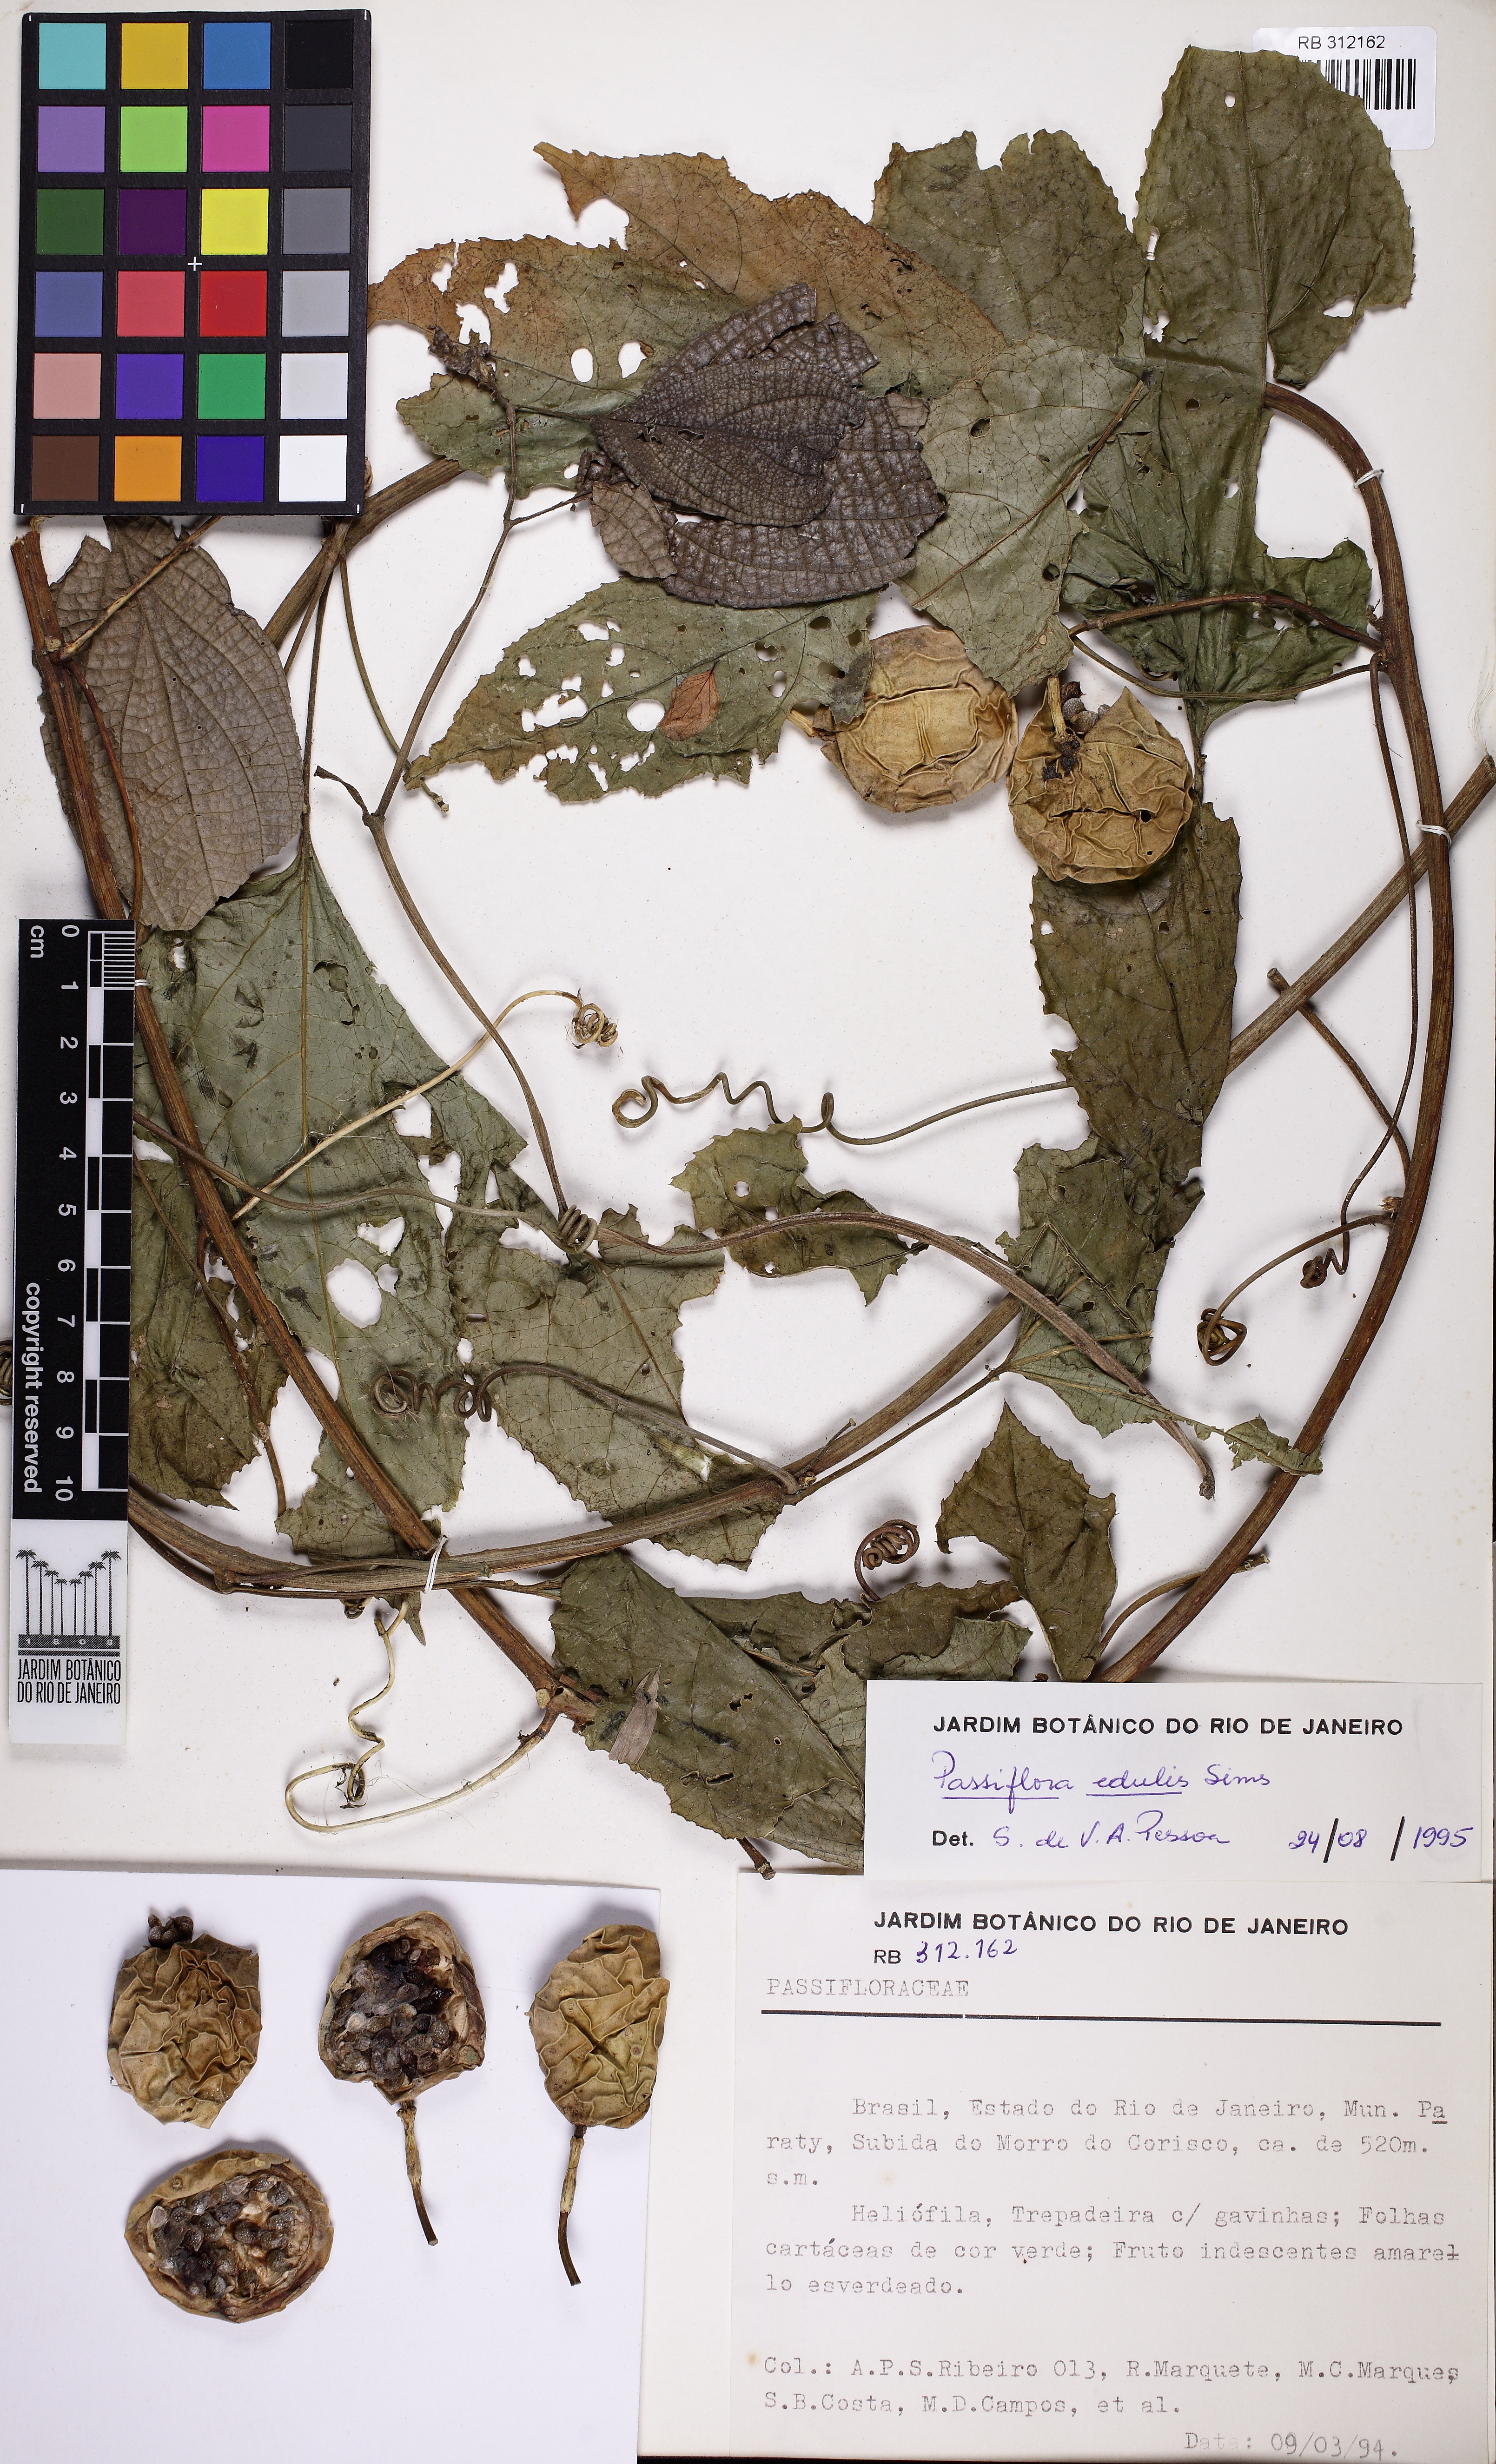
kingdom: Plantae
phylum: Tracheophyta
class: Magnoliopsida
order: Malpighiales
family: Passifloraceae
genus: Passiflora
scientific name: Passiflora edulis
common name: Purple granadilla
